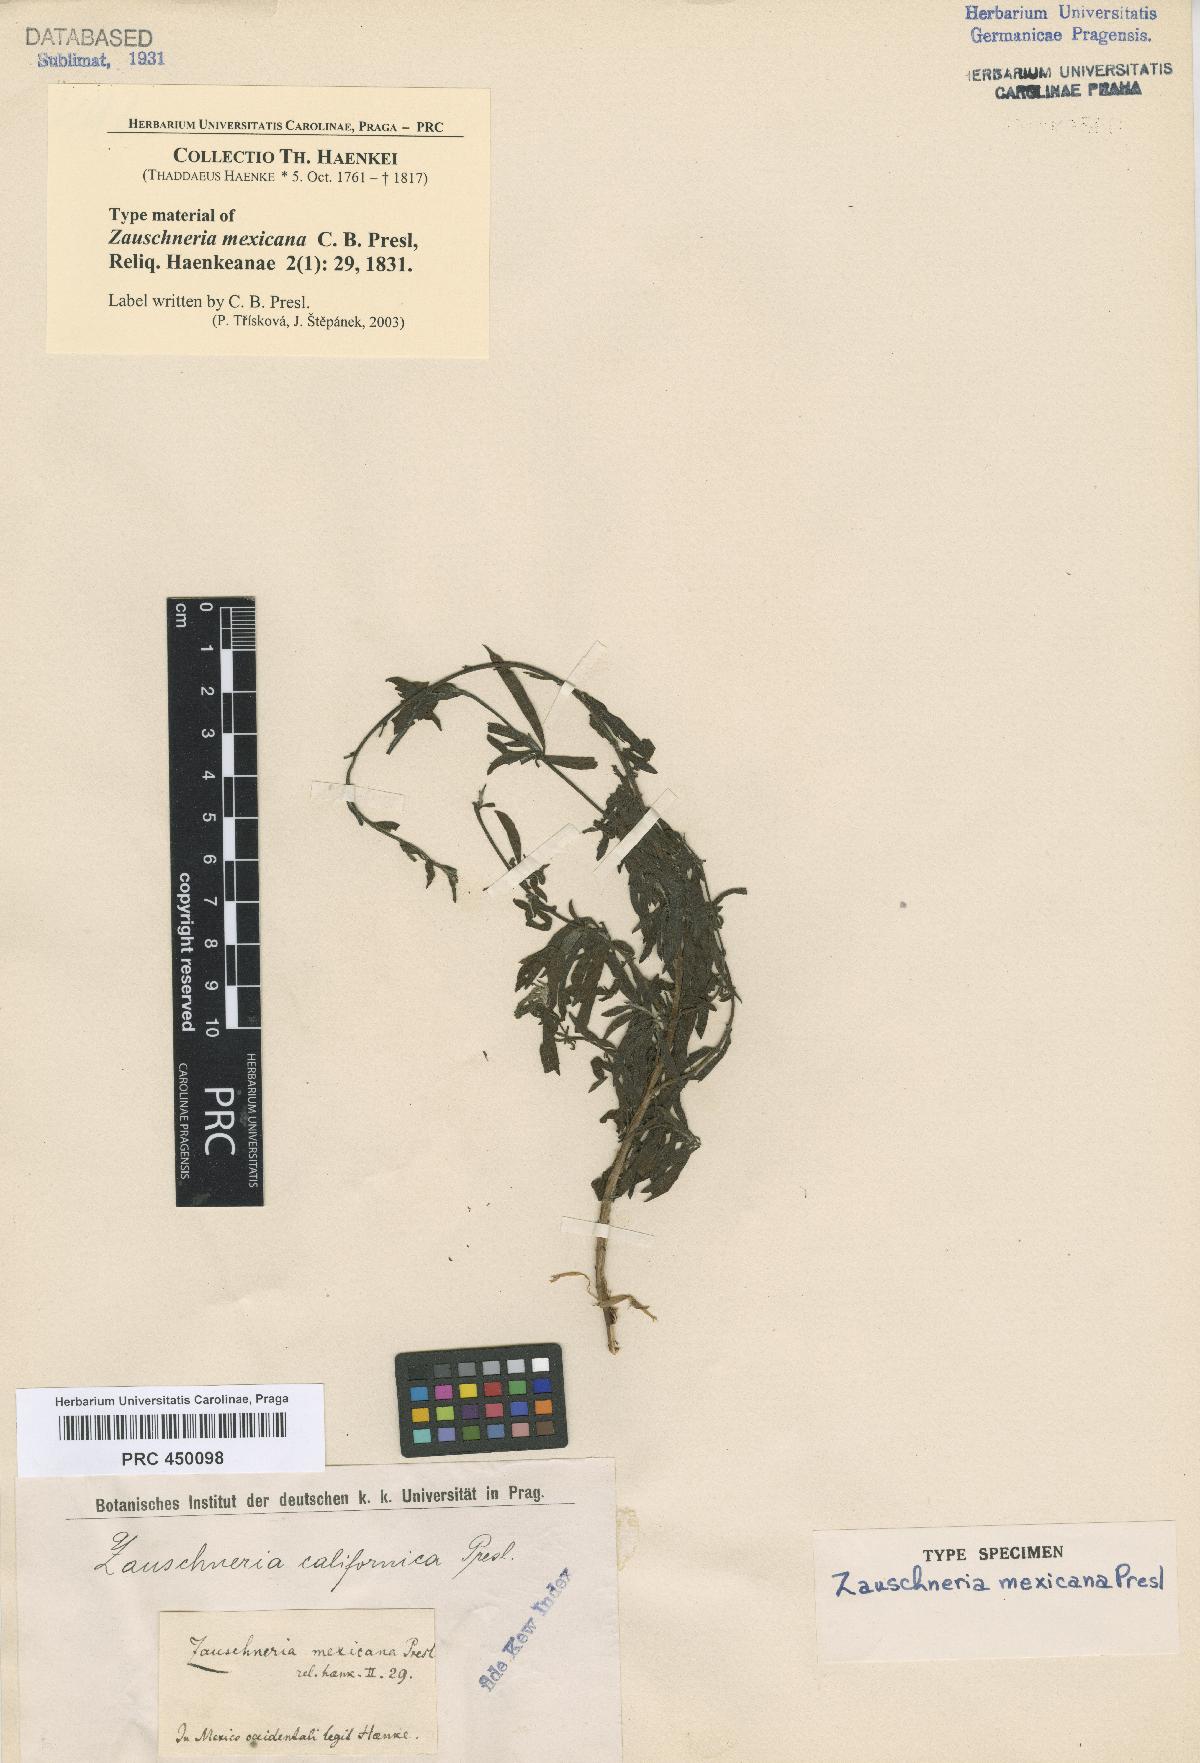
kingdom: Plantae
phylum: Tracheophyta
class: Magnoliopsida
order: Myrtales
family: Onagraceae
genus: Epilobium
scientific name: Epilobium canum
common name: California-fuchsia
